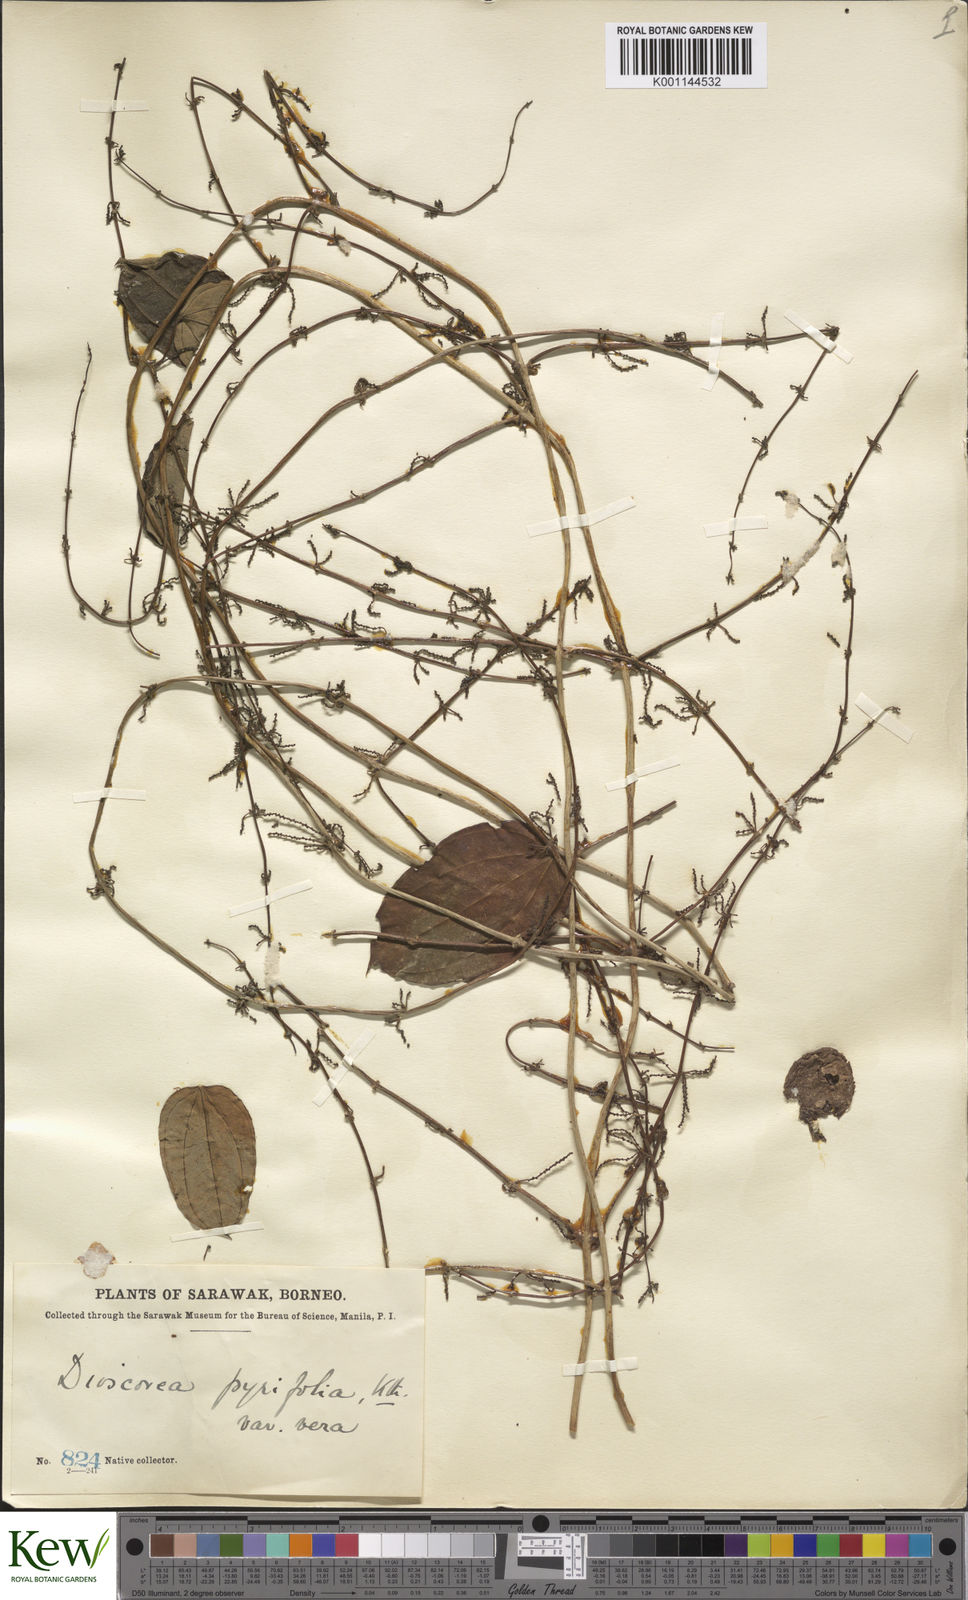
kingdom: Plantae
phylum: Tracheophyta
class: Liliopsida
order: Dioscoreales
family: Dioscoreaceae
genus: Dioscorea
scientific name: Dioscorea pyrifolia
